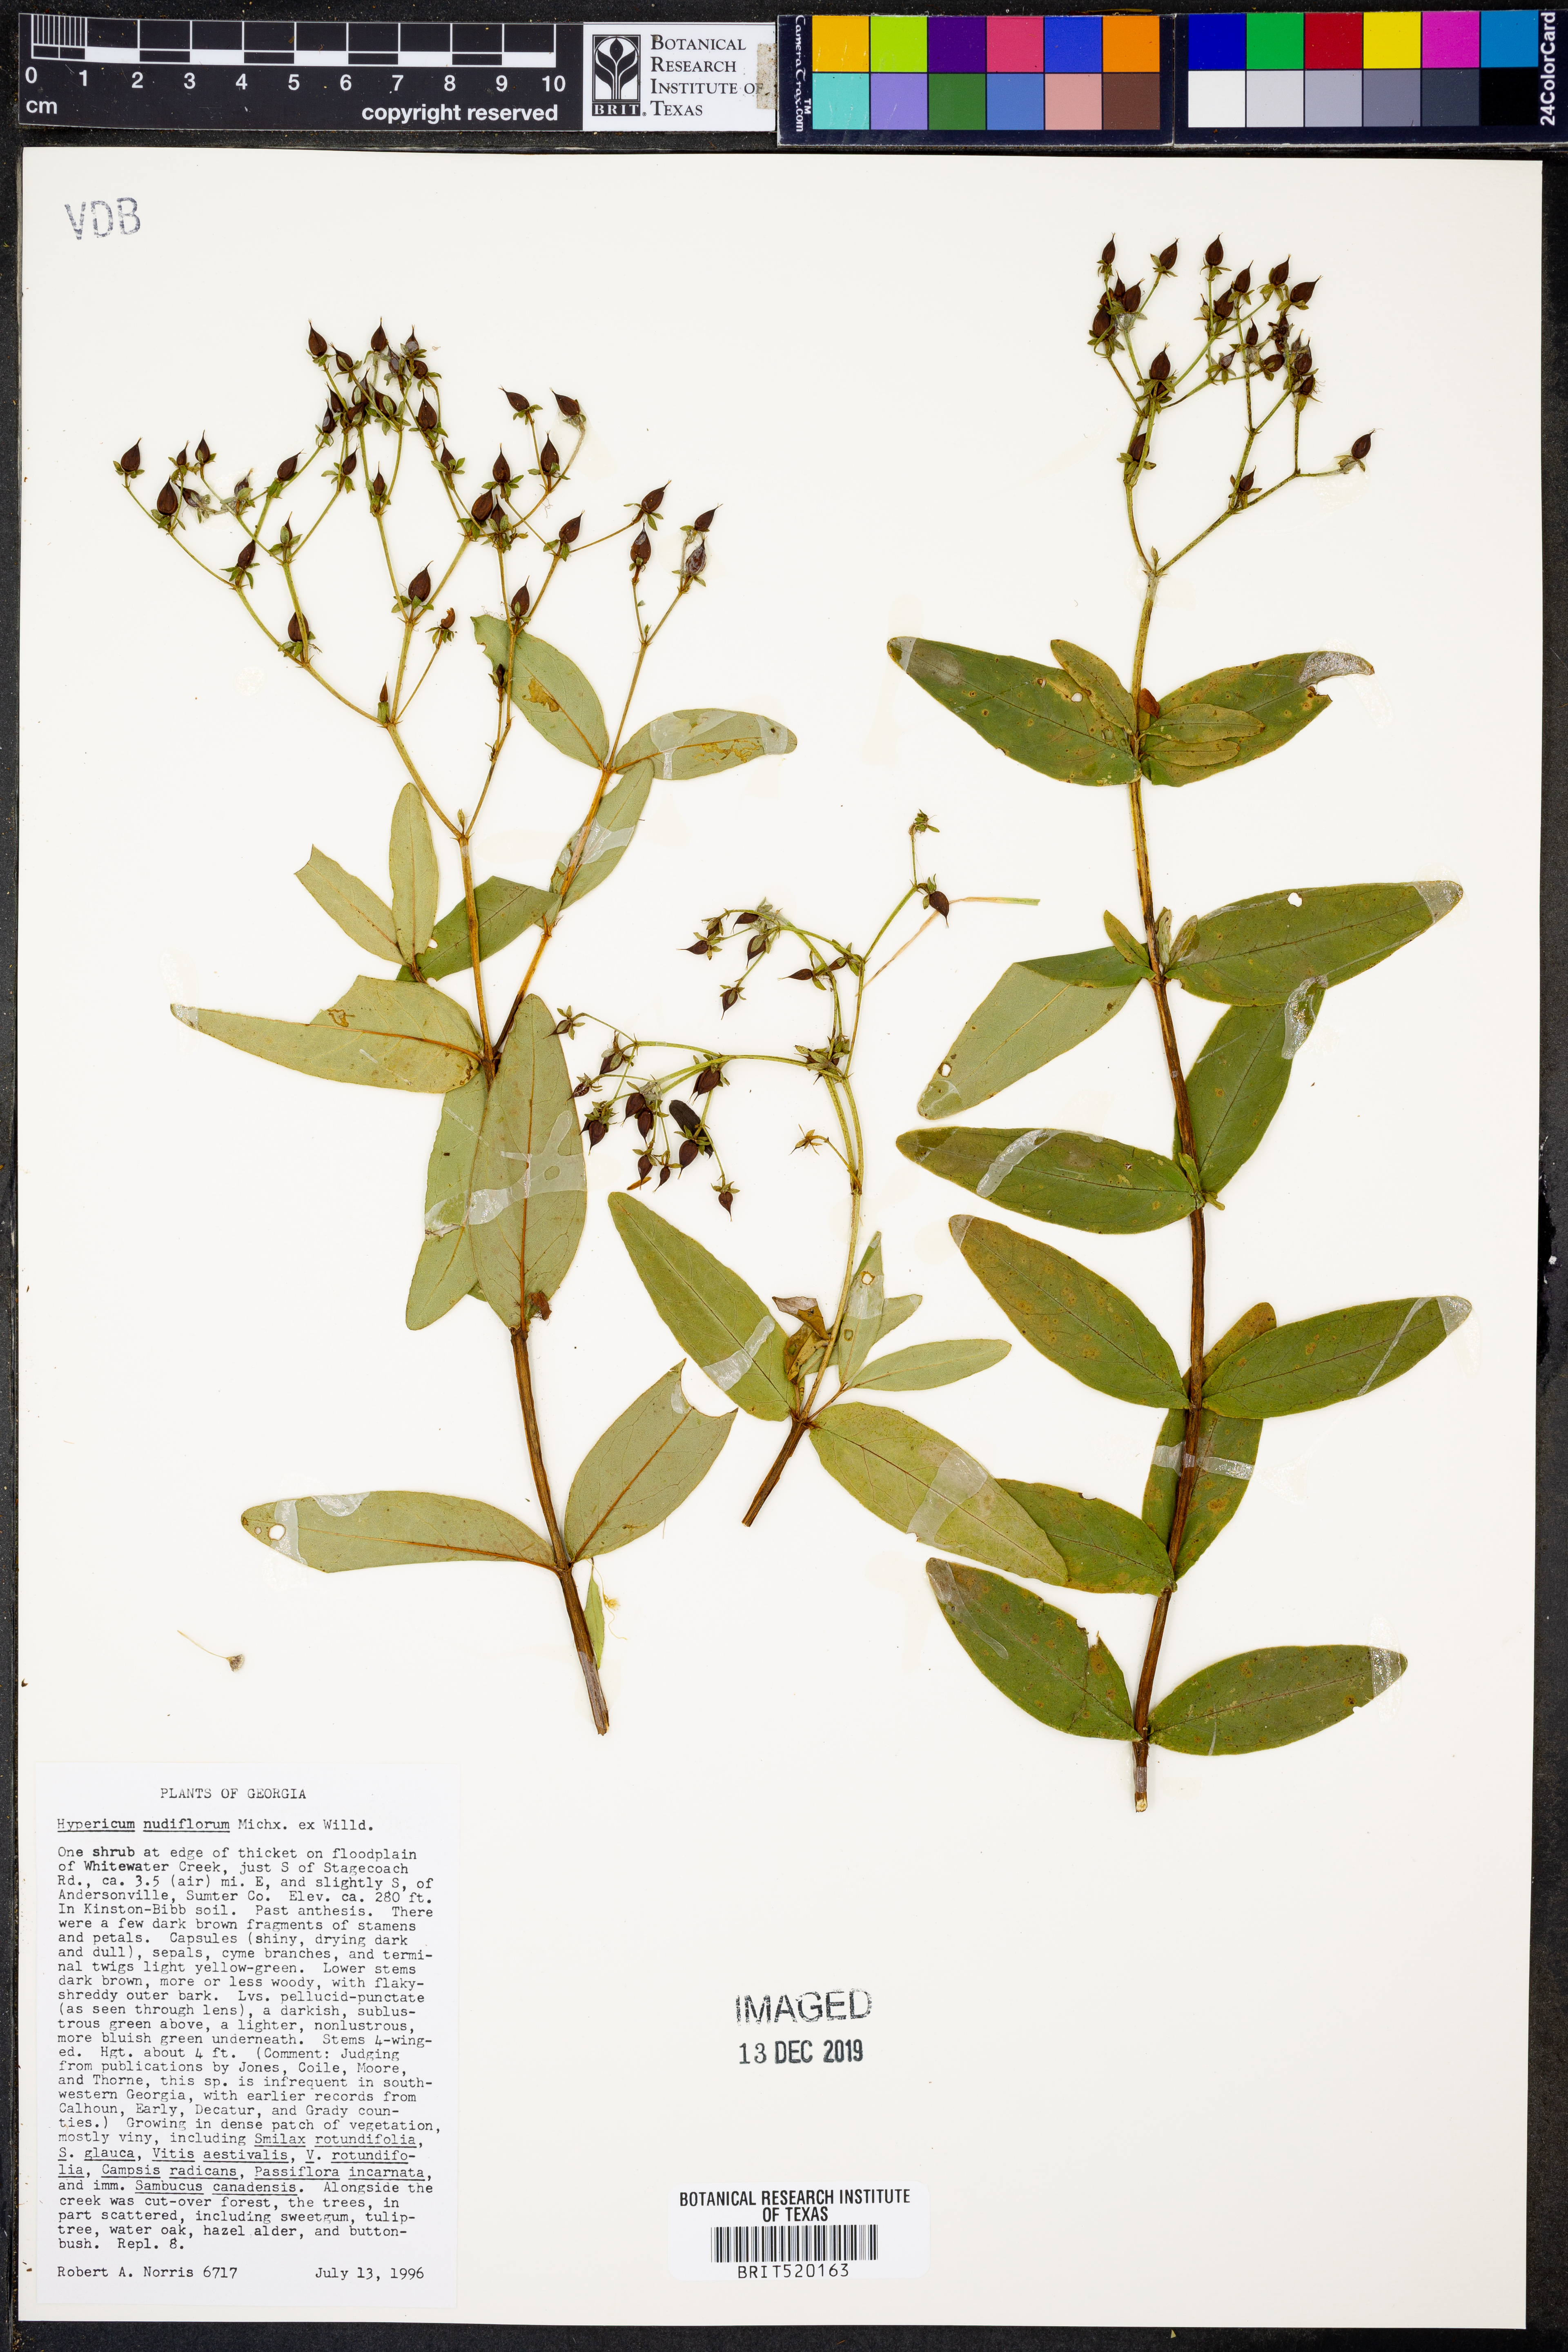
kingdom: Plantae
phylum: Tracheophyta
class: Magnoliopsida
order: Malpighiales
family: Hypericaceae
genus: Hypericum
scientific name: Hypericum nudiflorum
